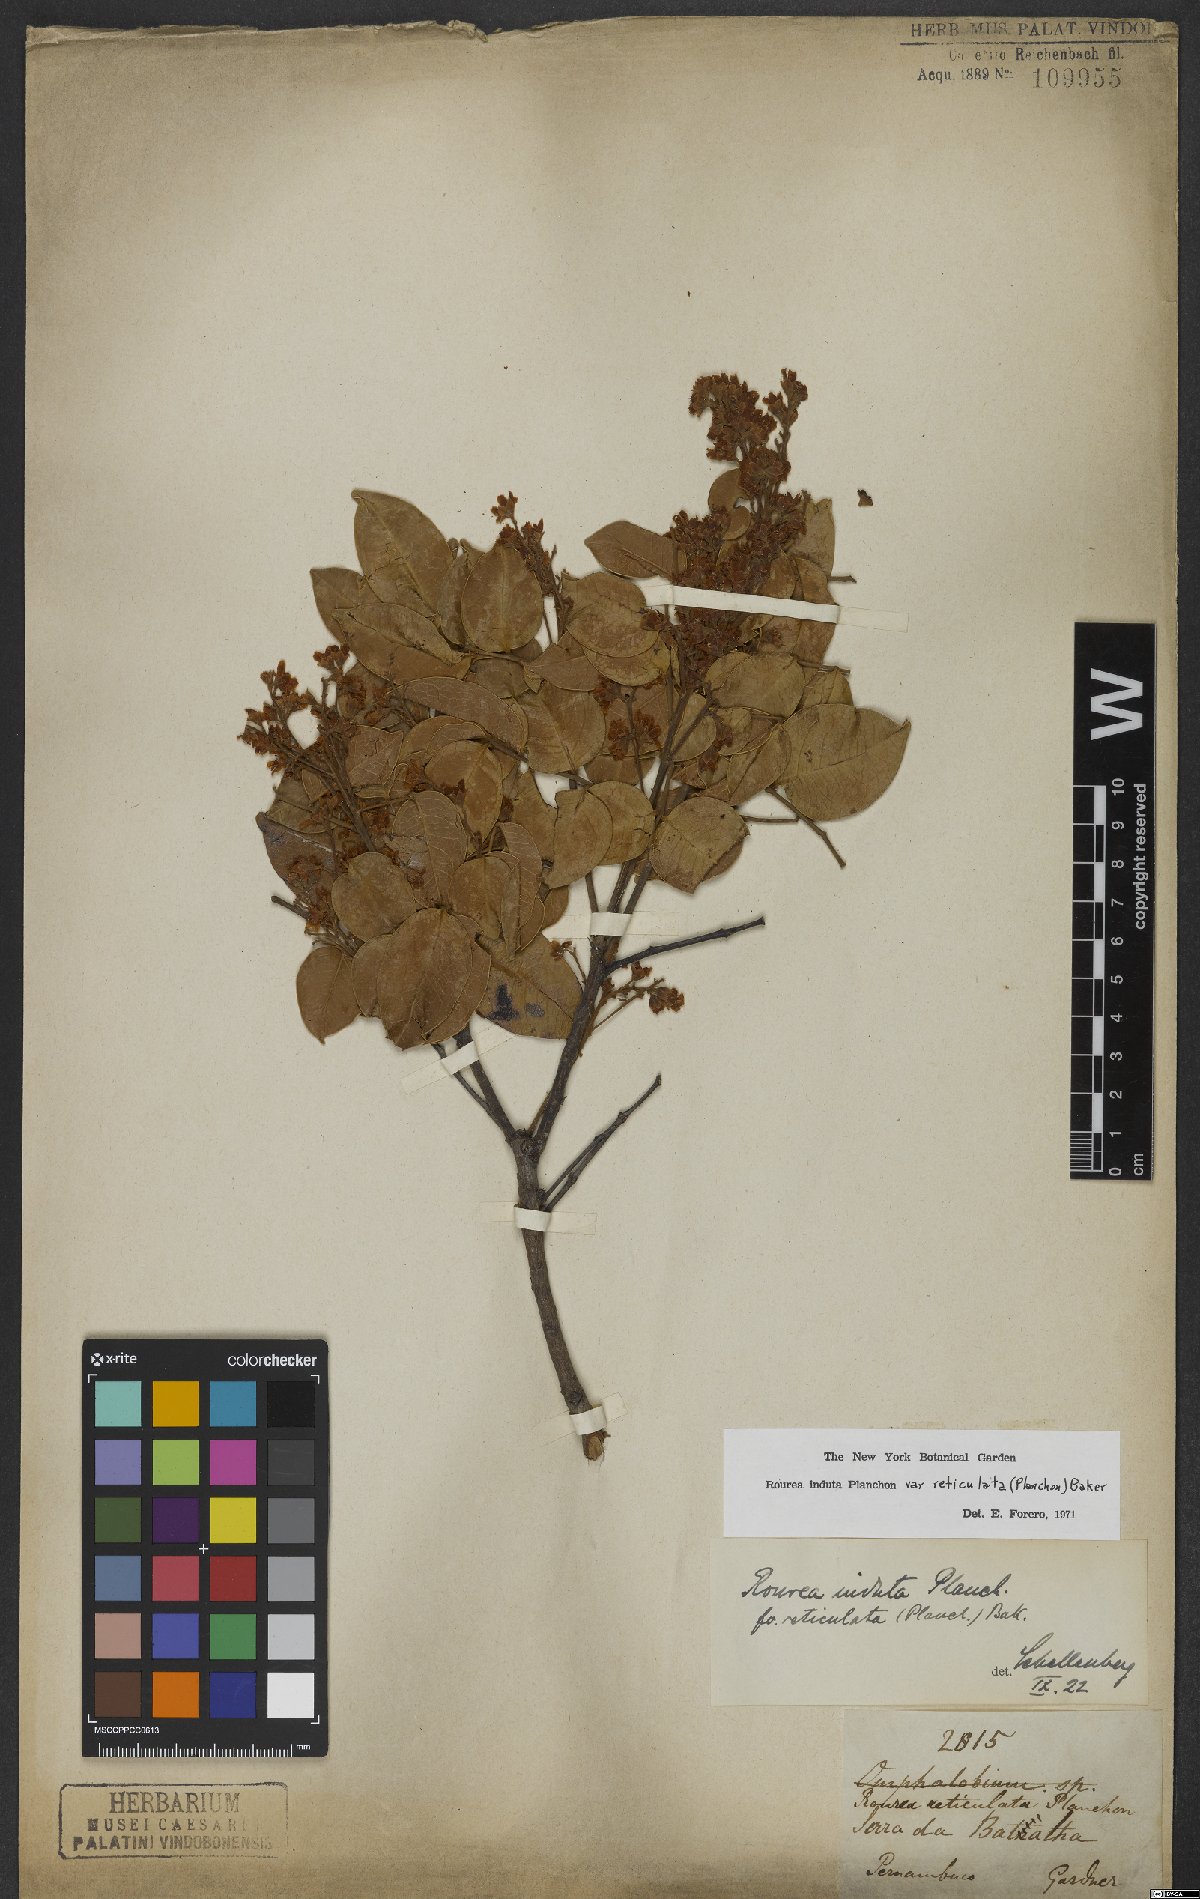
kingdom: Plantae
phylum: Tracheophyta
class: Magnoliopsida
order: Oxalidales
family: Connaraceae
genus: Rourea
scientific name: Rourea induta
